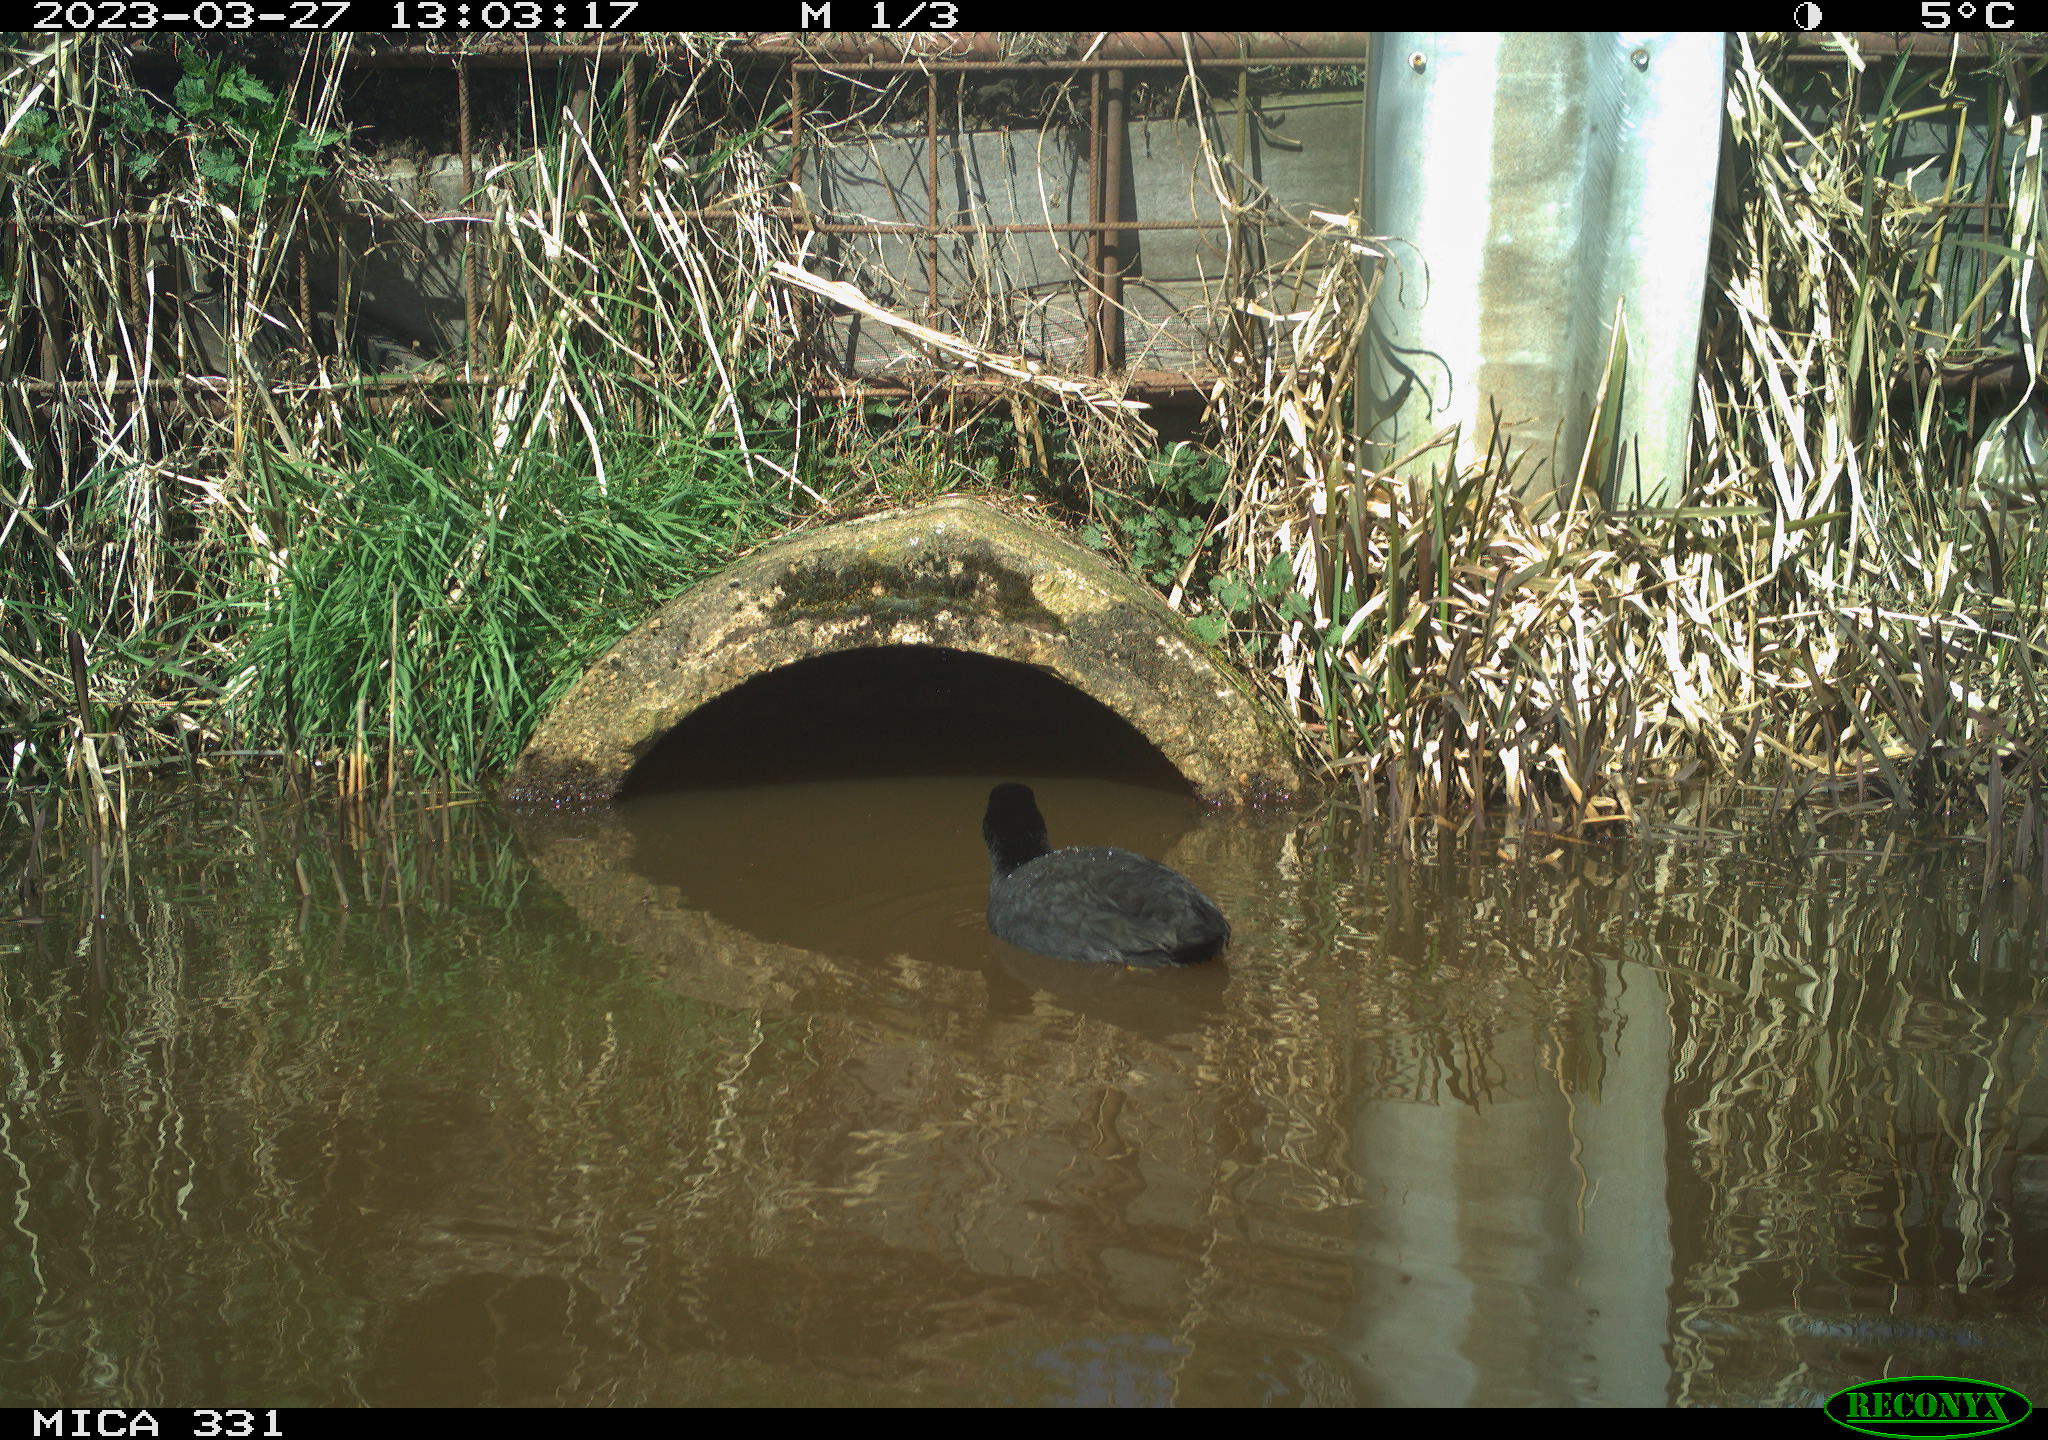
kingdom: Animalia
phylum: Chordata
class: Aves
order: Gruiformes
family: Rallidae
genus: Fulica
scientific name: Fulica atra
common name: Eurasian coot
